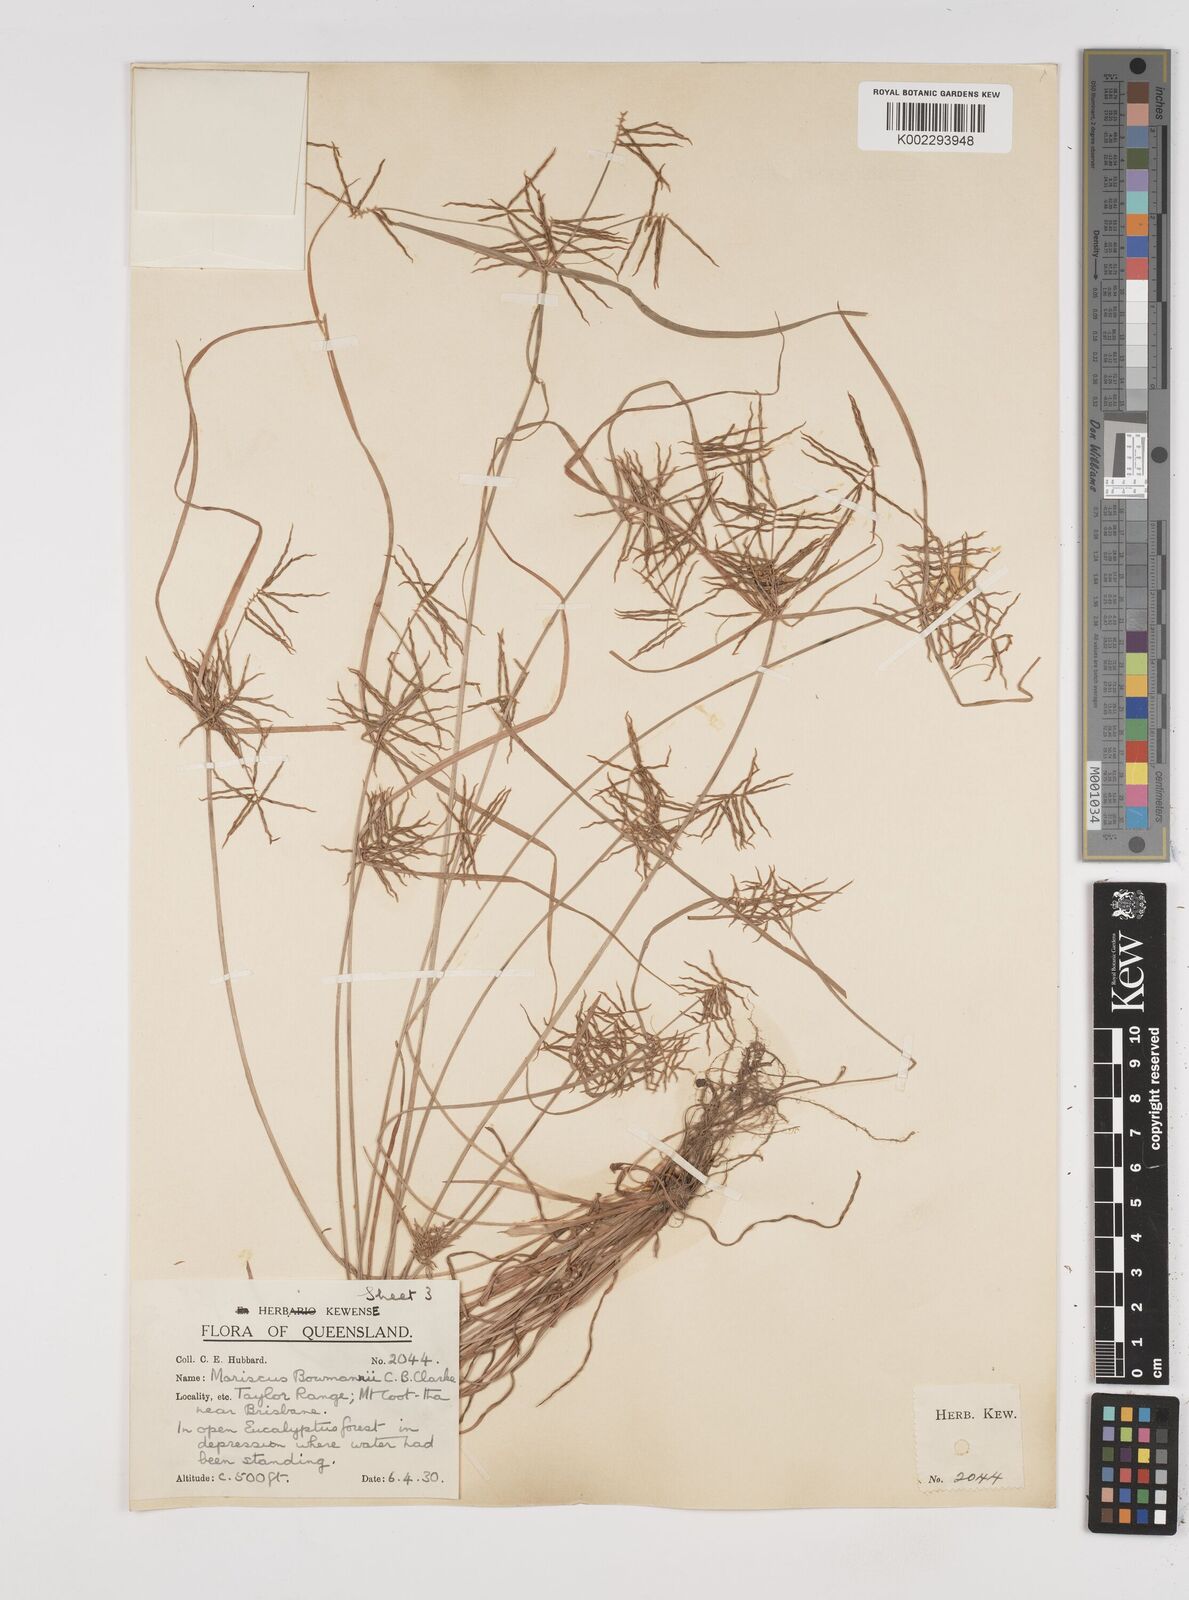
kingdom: Plantae
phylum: Tracheophyta
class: Liliopsida
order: Poales
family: Cyperaceae
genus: Cyperus
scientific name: Cyperus bowmanni
